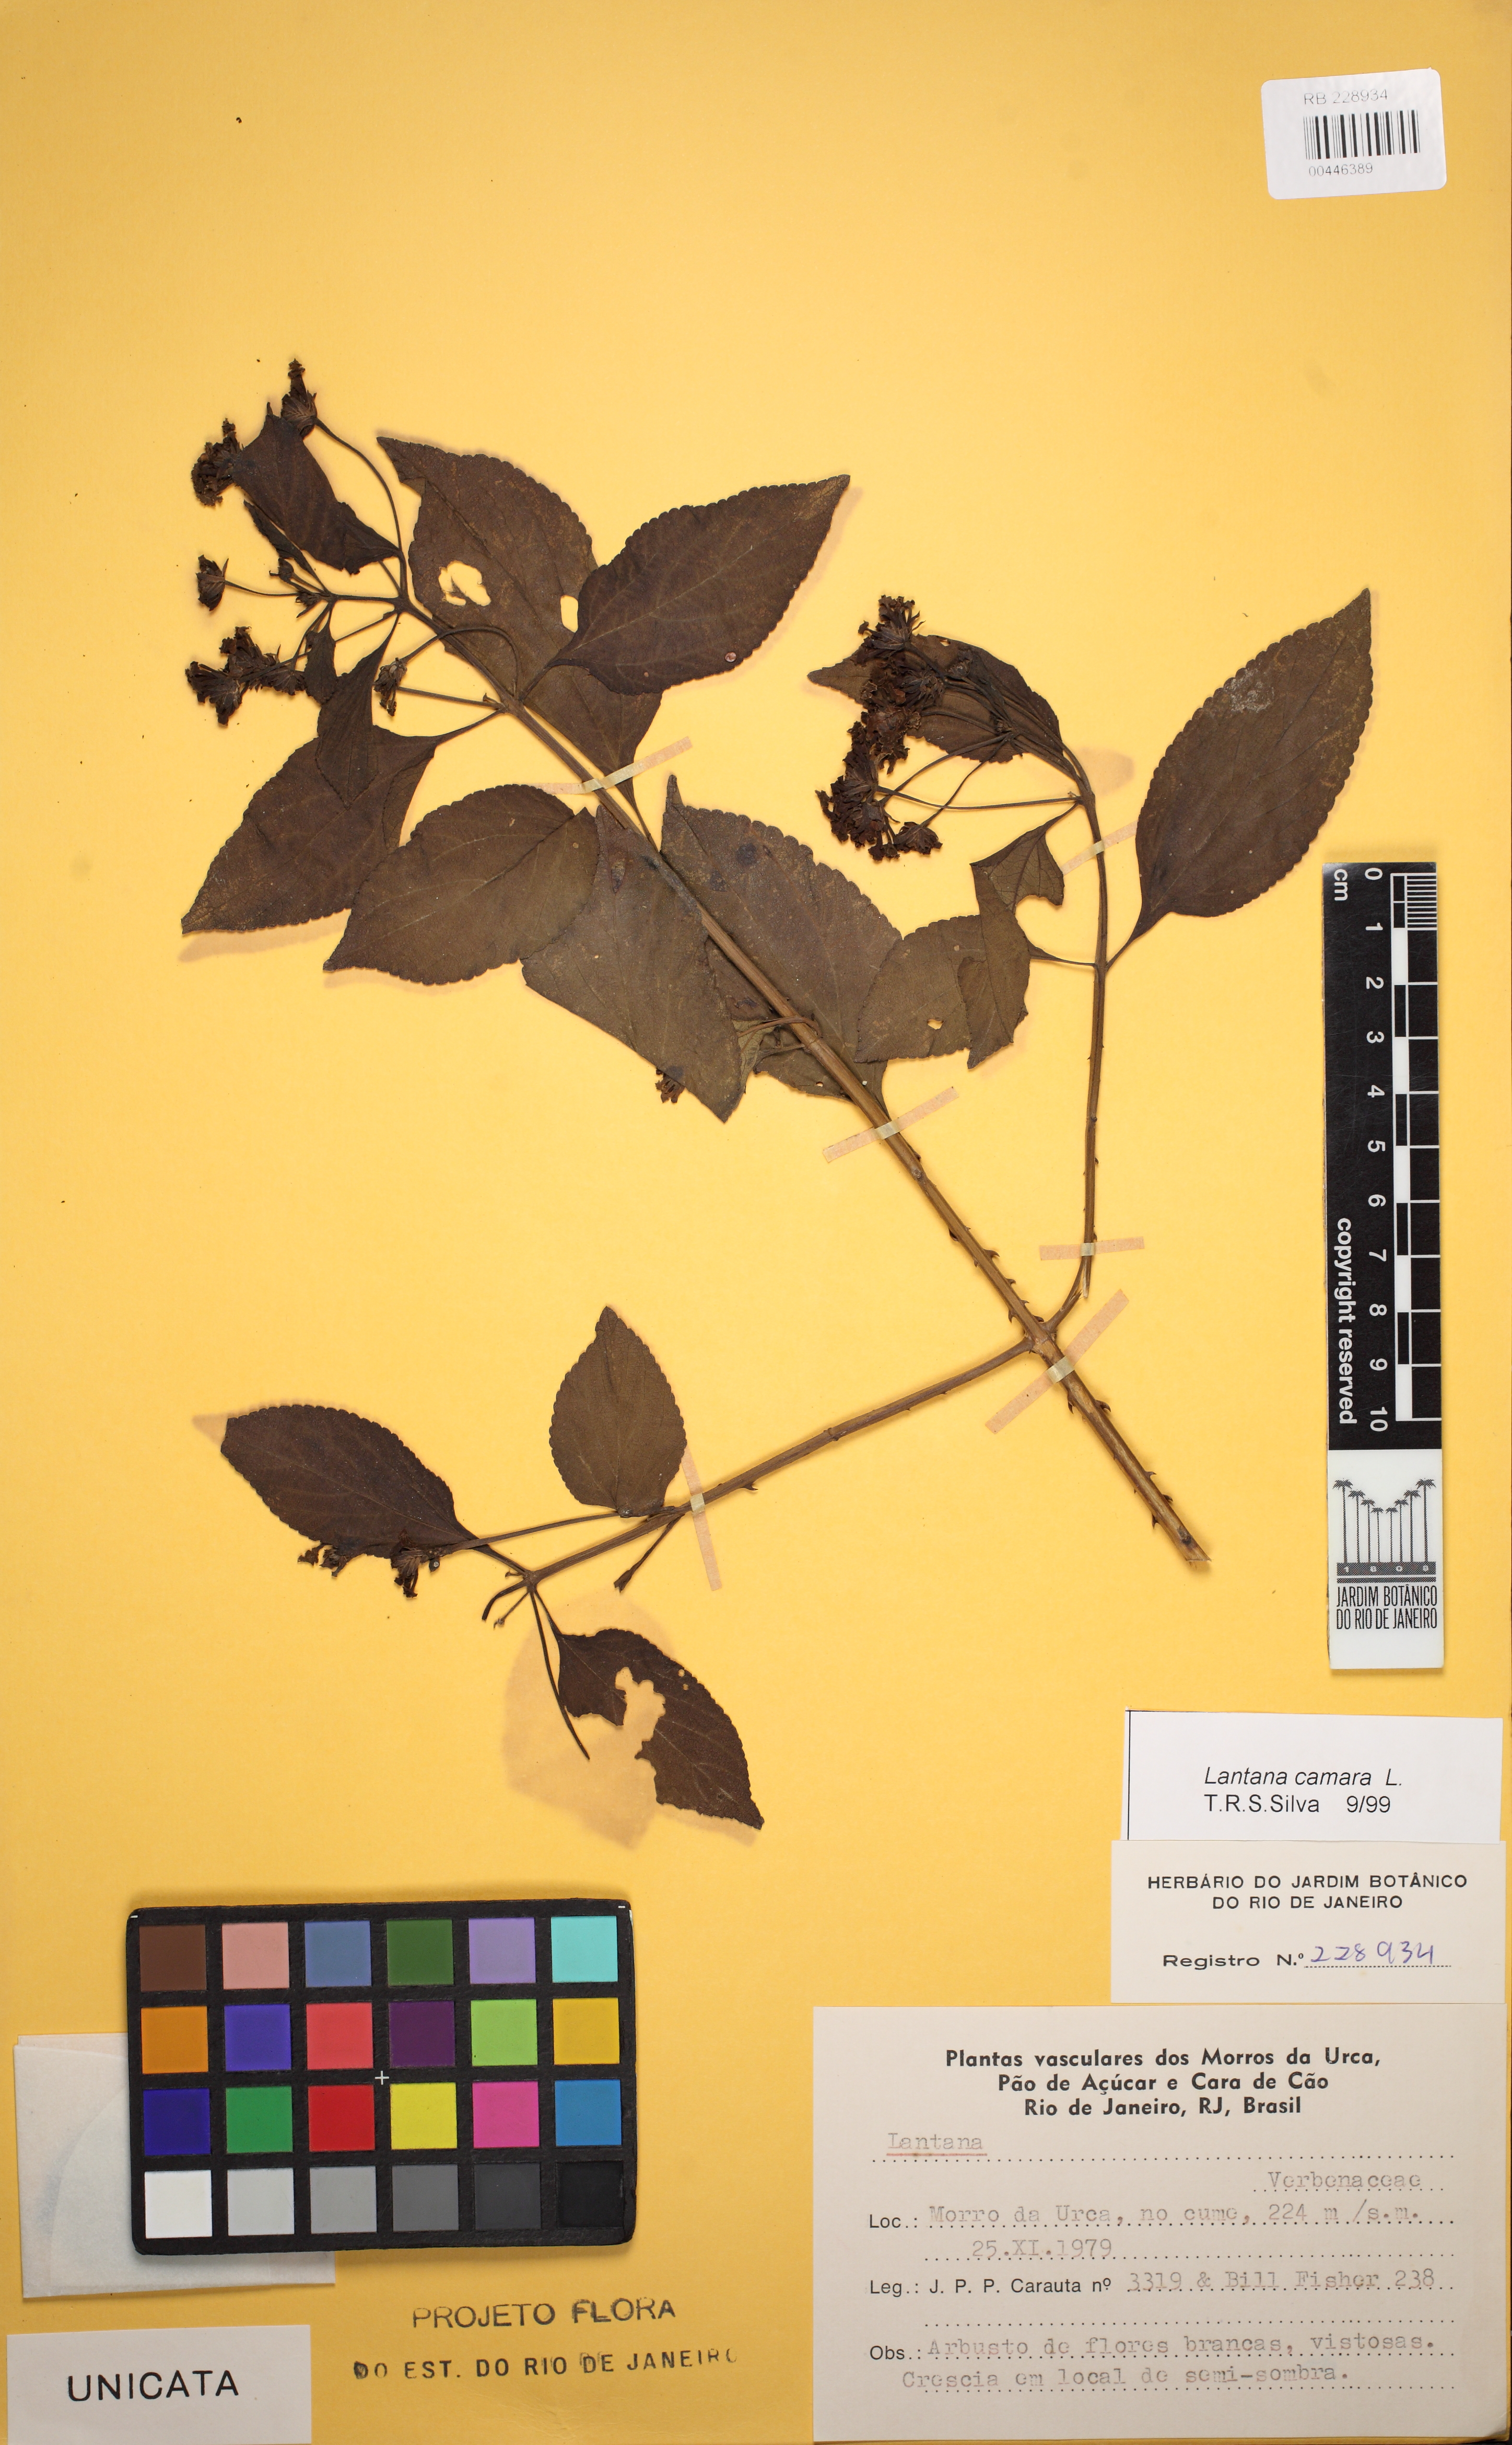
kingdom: Plantae
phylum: Tracheophyta
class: Magnoliopsida
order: Lamiales
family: Verbenaceae
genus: Lantana
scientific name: Lantana camara
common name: Lantana
